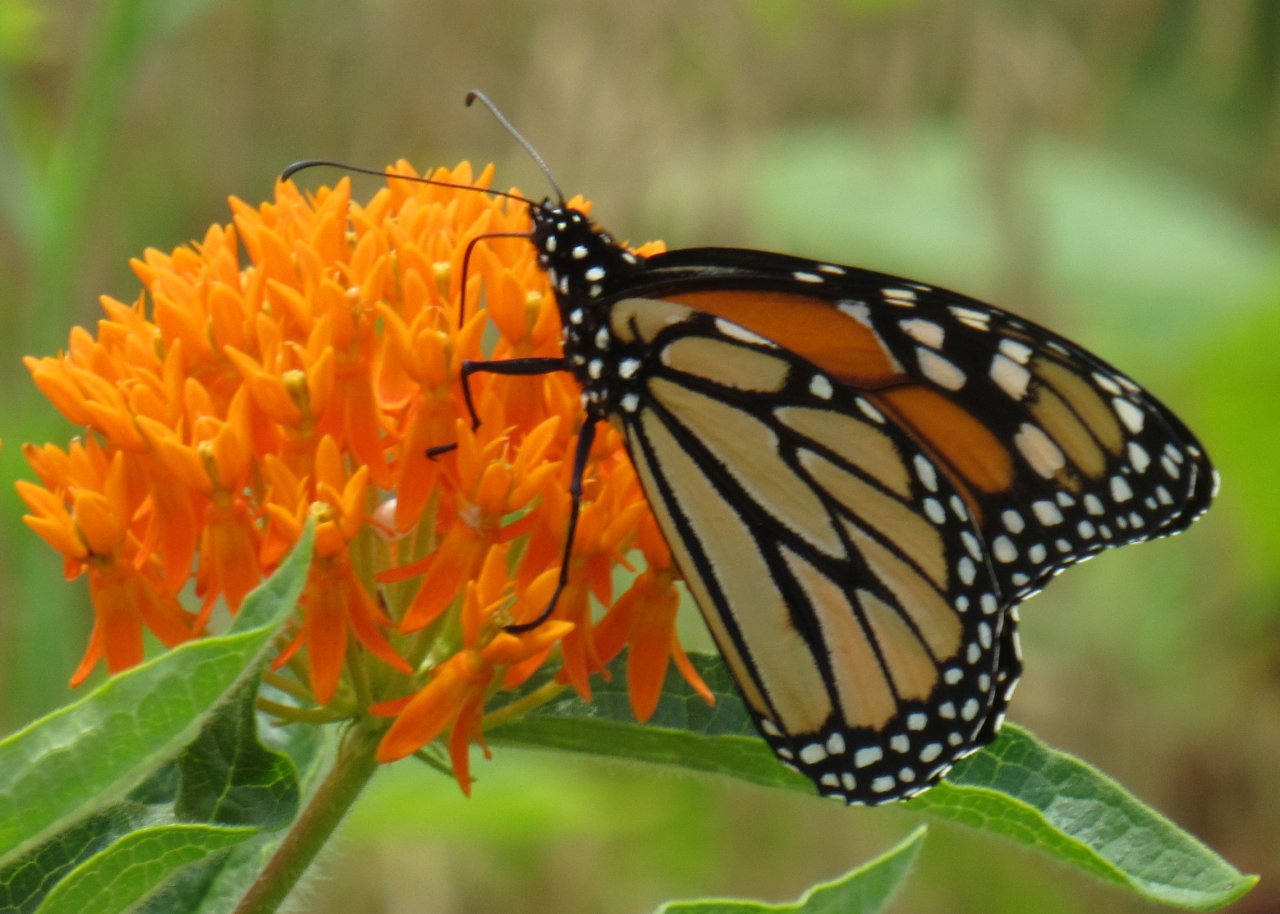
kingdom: Animalia
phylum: Arthropoda
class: Insecta
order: Lepidoptera
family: Nymphalidae
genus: Danaus
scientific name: Danaus plexippus
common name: Monarch
